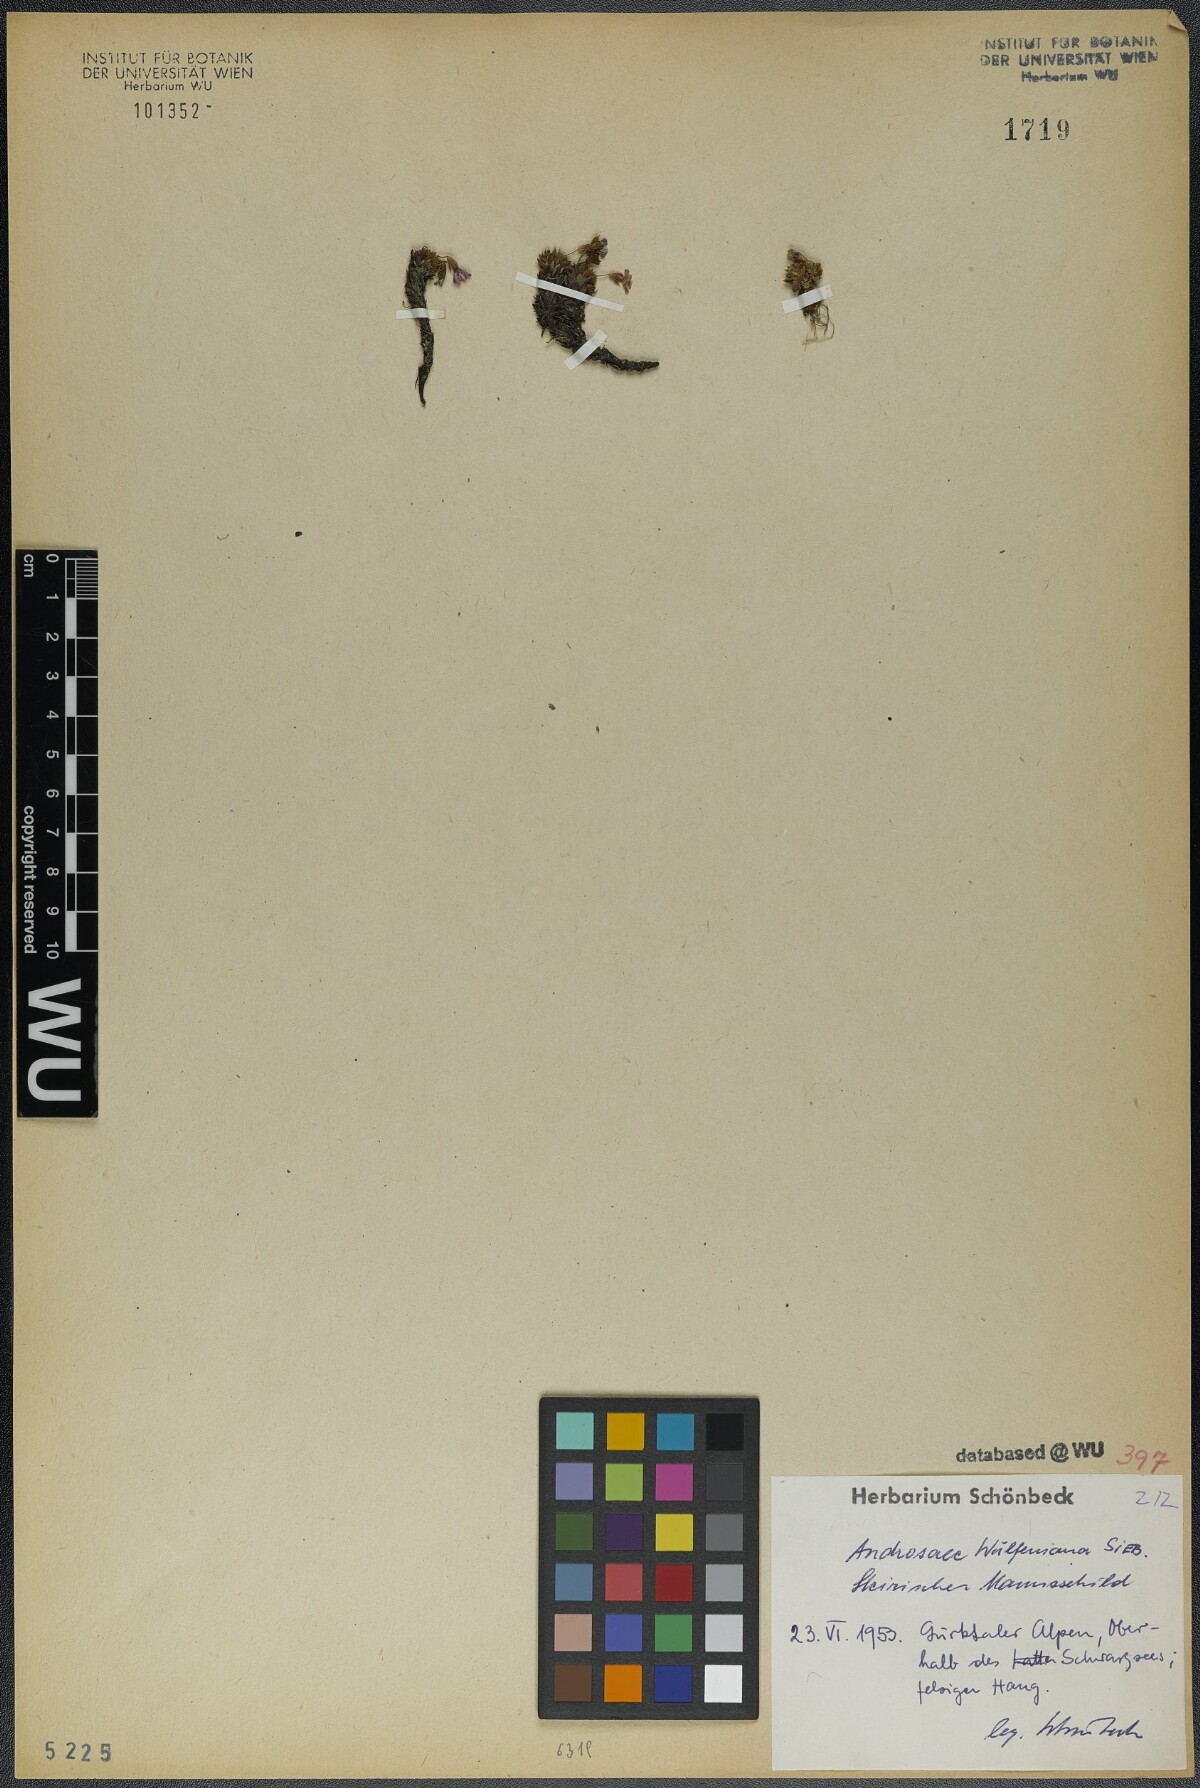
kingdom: Plantae
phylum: Tracheophyta
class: Magnoliopsida
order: Ericales
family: Primulaceae
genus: Androsace
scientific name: Androsace wulfeniana
